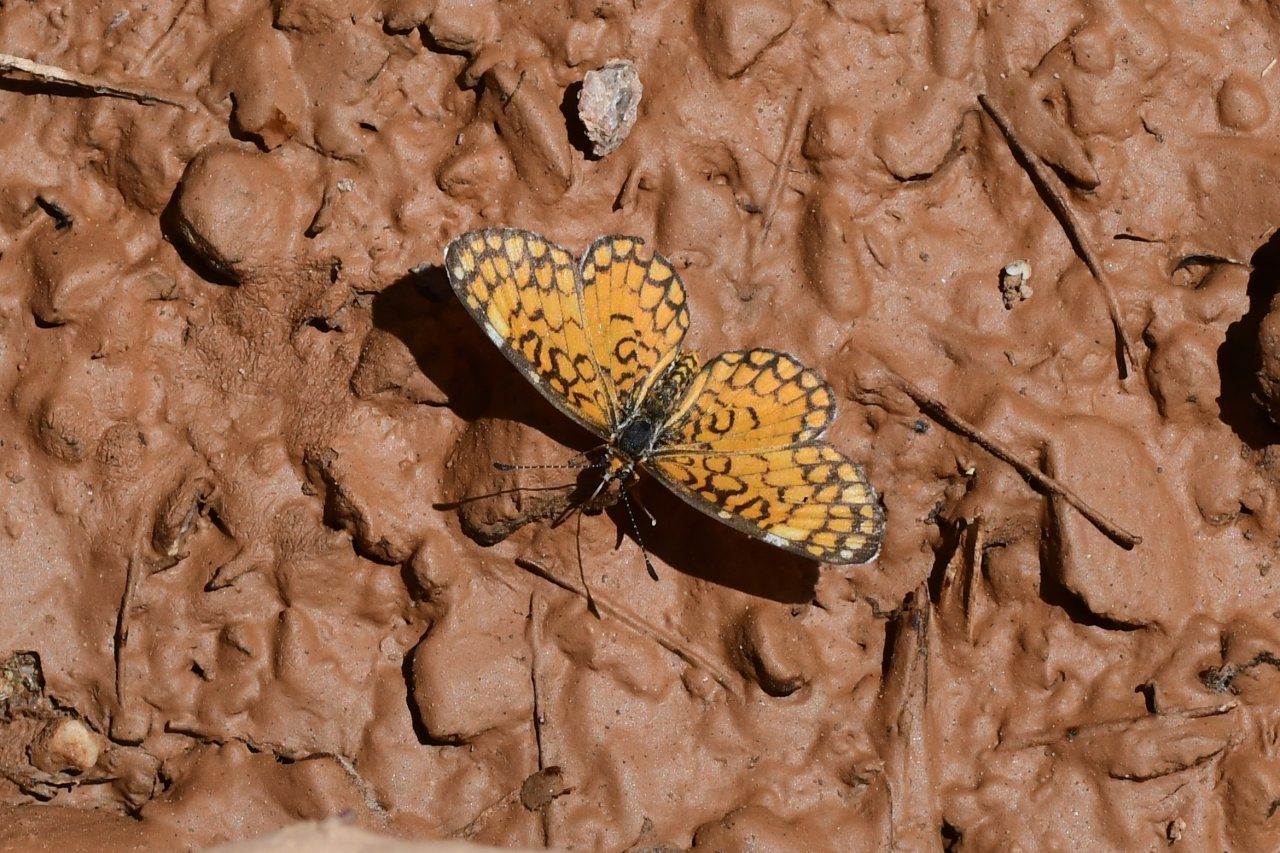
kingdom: Animalia
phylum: Arthropoda
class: Insecta
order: Lepidoptera
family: Nymphalidae
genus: Dymasia
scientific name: Dymasia dymas
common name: Tiny Checkerspot
